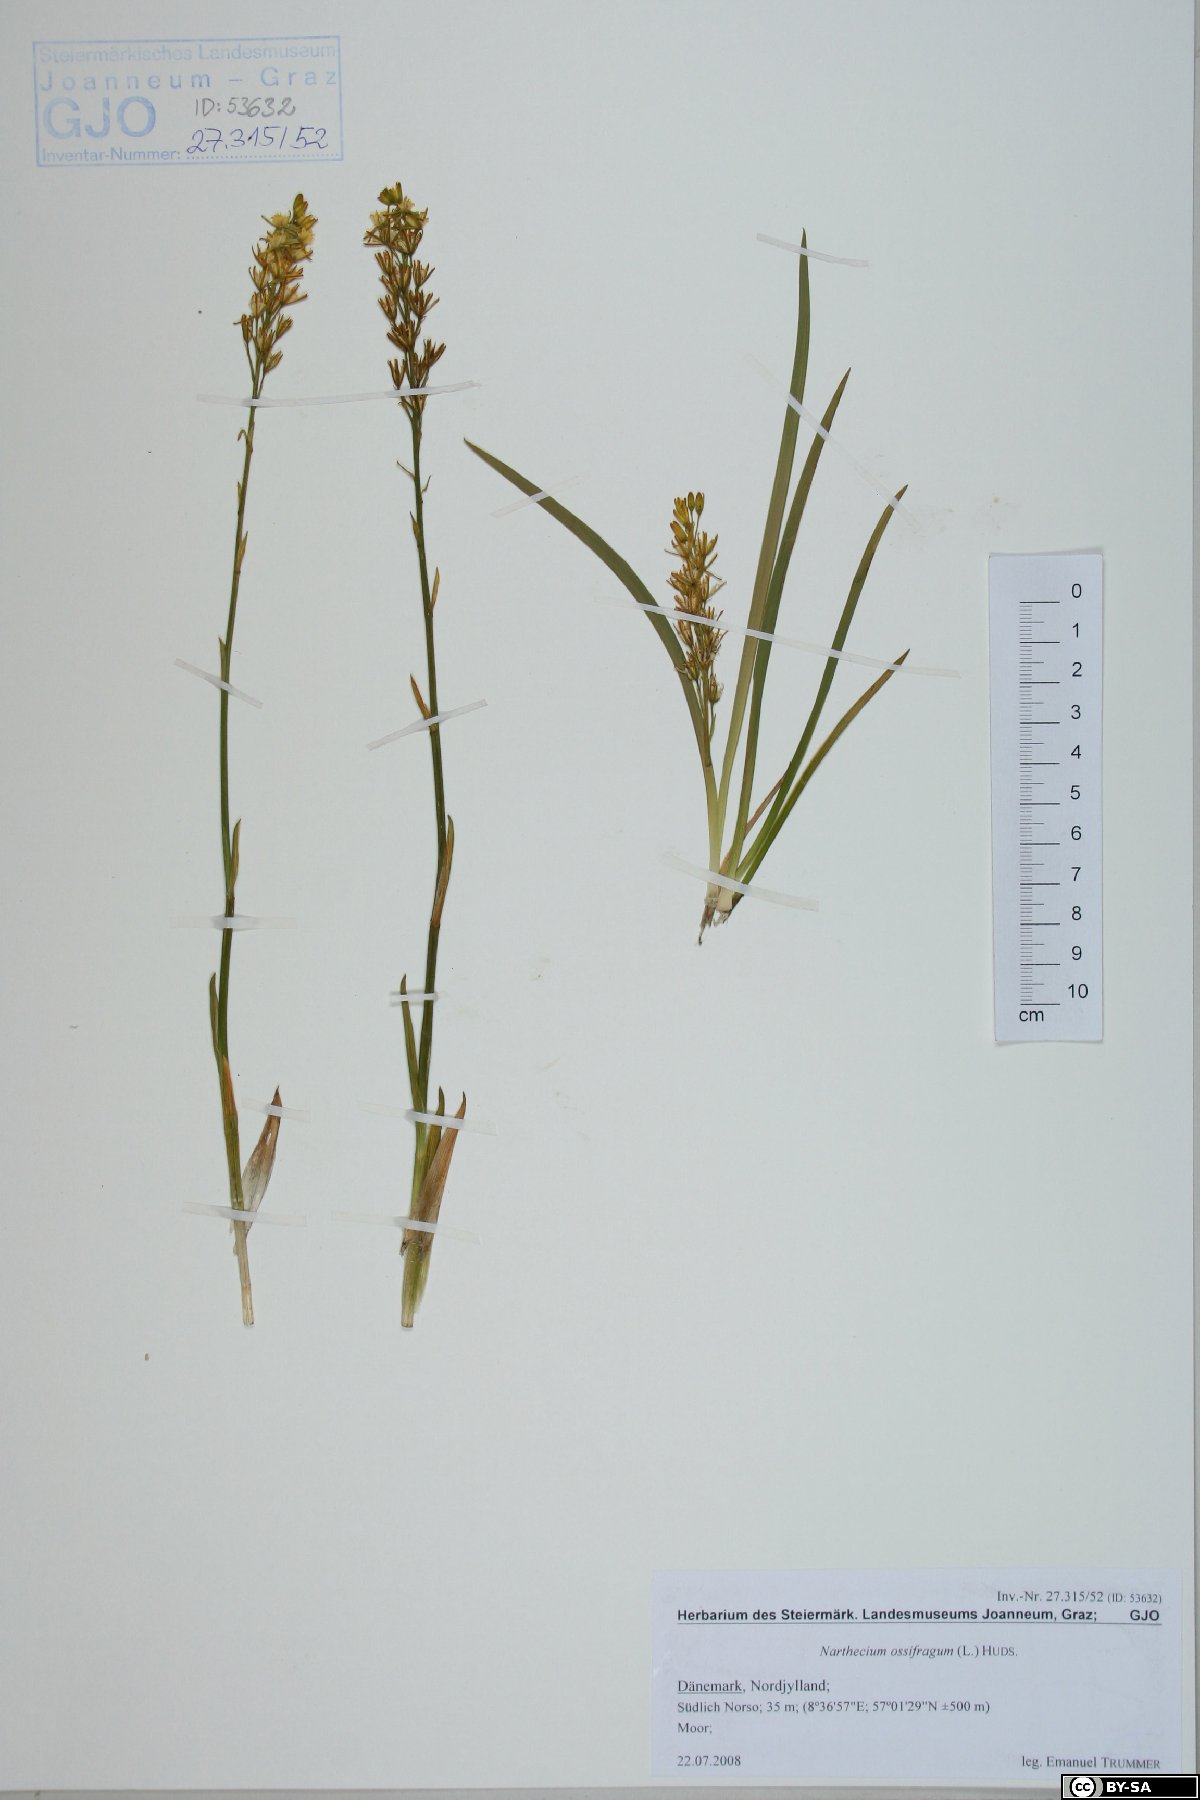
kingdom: Plantae
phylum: Tracheophyta
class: Liliopsida
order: Dioscoreales
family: Nartheciaceae
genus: Narthecium
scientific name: Narthecium ossifragum
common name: Bog asphodel
